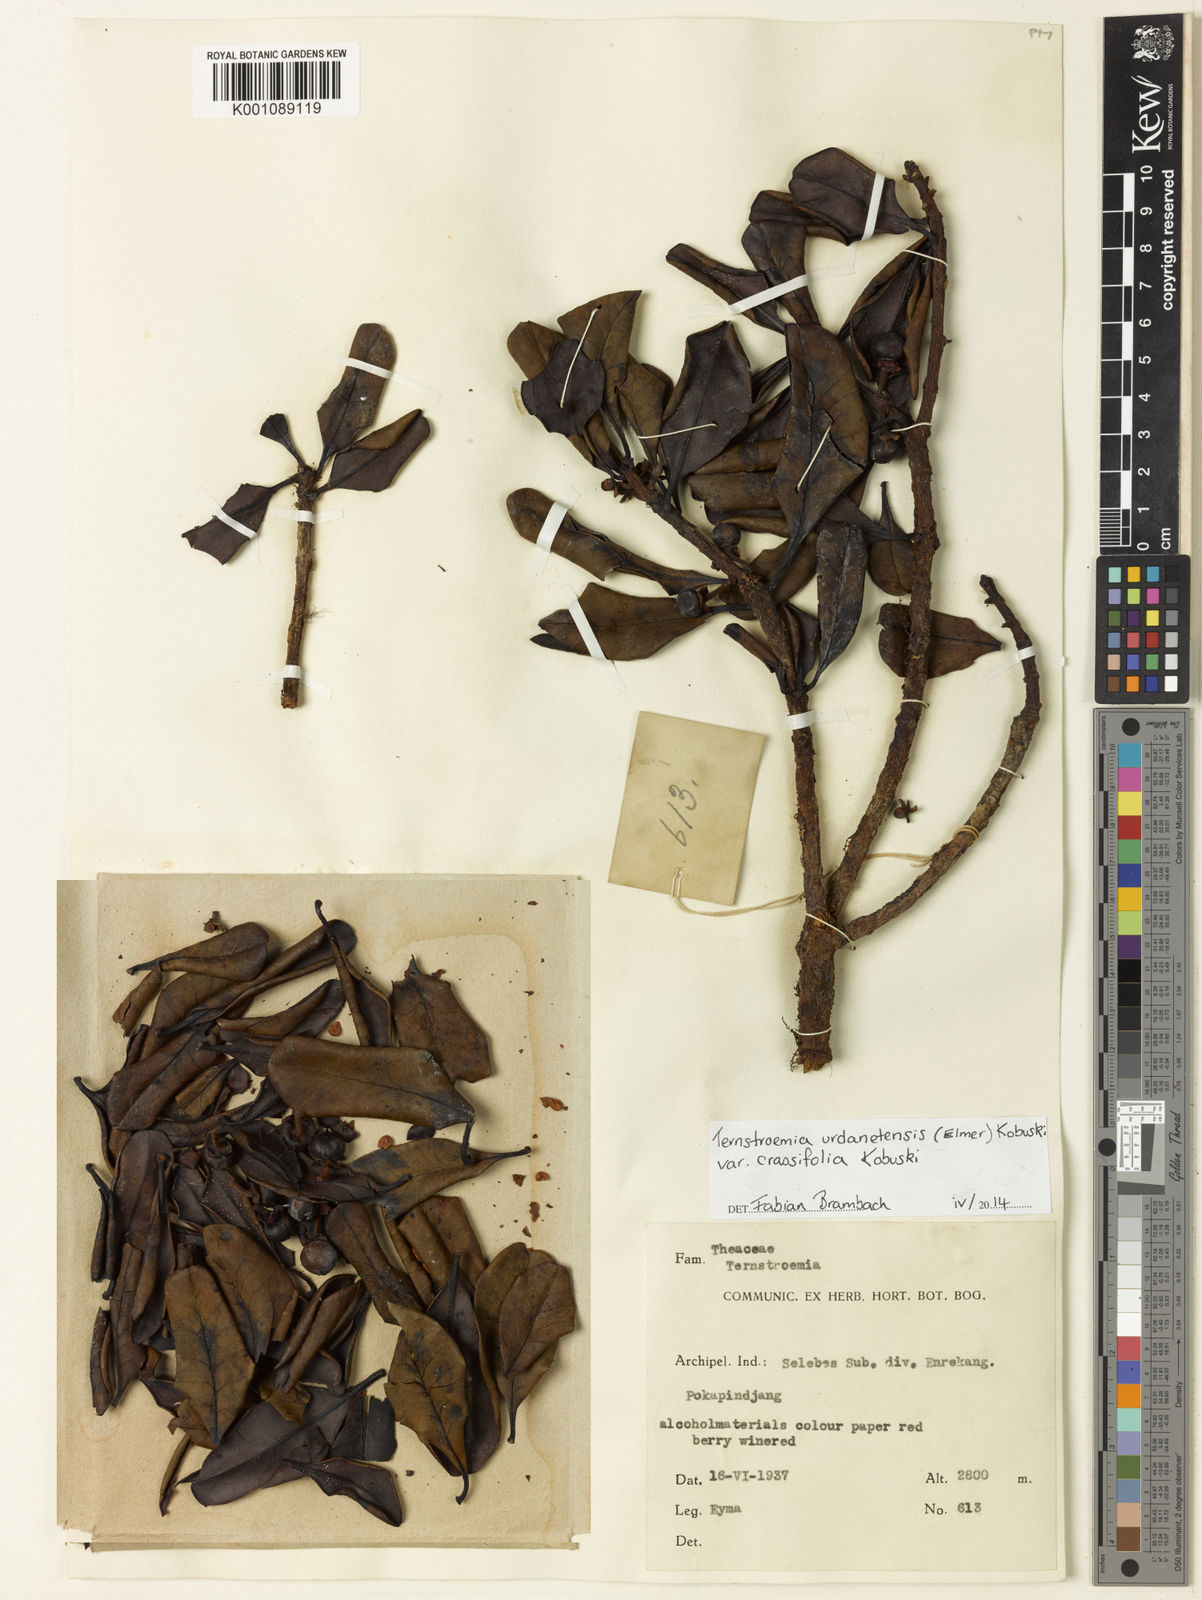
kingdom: Plantae
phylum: Tracheophyta
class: Magnoliopsida
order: Ericales
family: Pentaphylacaceae
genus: Ternstroemia
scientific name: Ternstroemia urdanetensis
